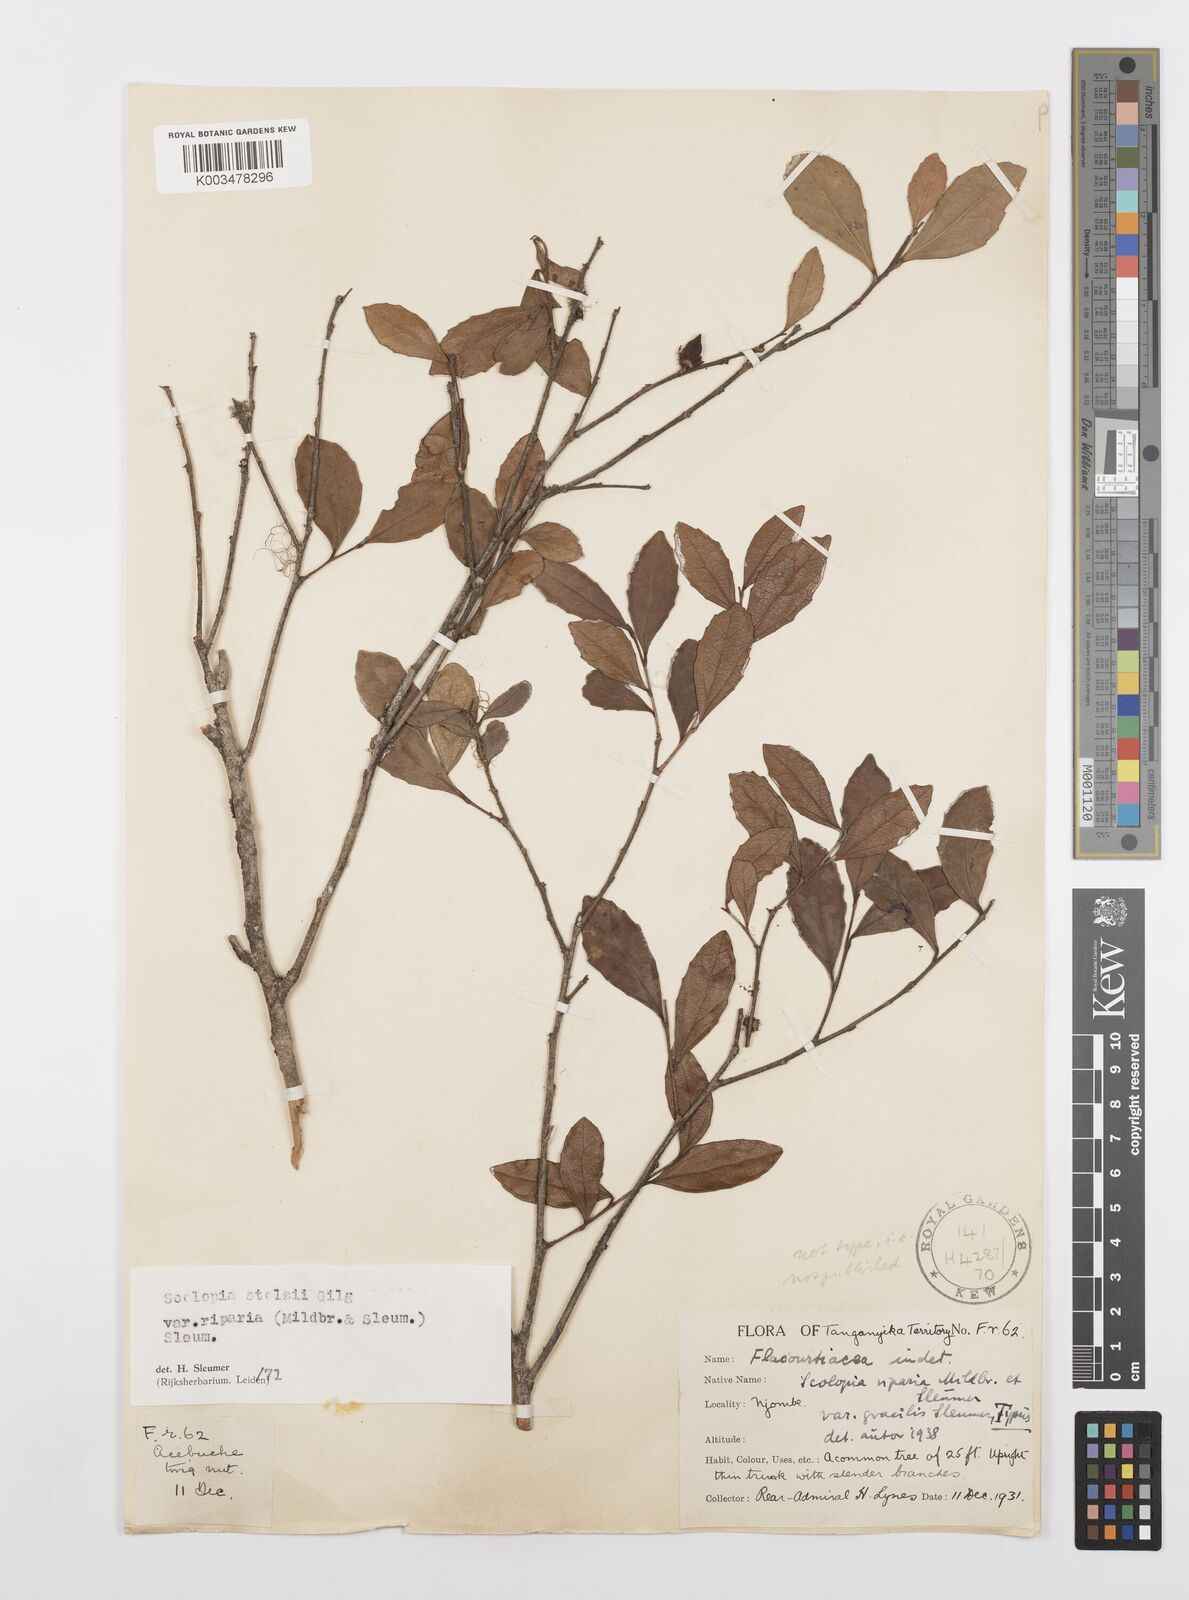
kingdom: Plantae
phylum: Tracheophyta
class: Magnoliopsida
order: Malpighiales
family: Salicaceae
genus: Scolopia
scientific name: Scolopia stolzii
